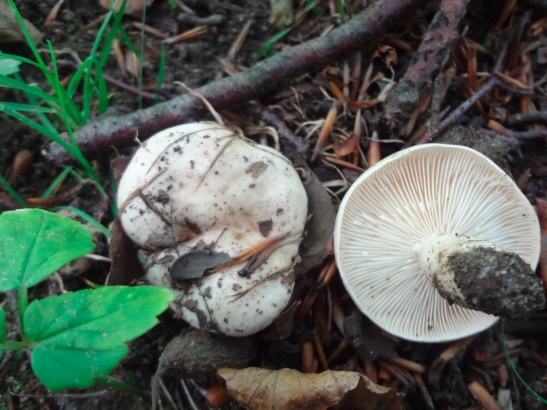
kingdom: Fungi
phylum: Basidiomycota
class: Agaricomycetes
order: Russulales
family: Russulaceae
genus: Lactarius
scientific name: Lactarius pallidus
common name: bleg mælkehat
